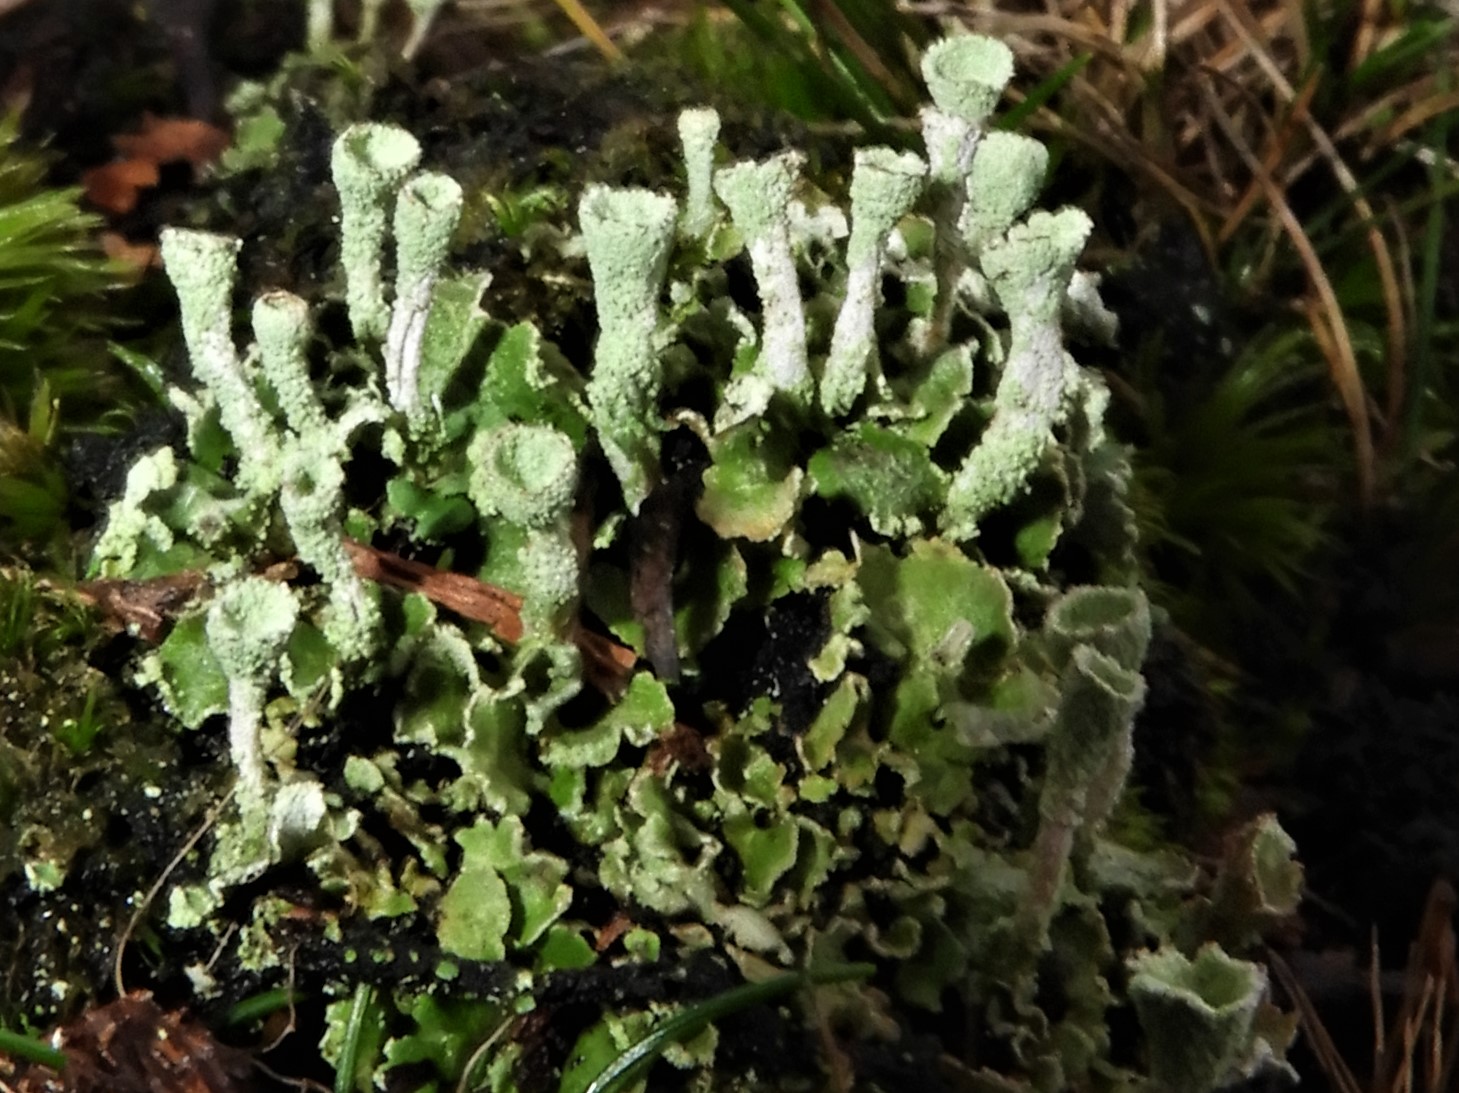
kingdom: Fungi
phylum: Ascomycota
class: Lecanoromycetes
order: Lecanorales
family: Cladoniaceae
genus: Cladonia
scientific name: Cladonia humilis
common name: lav bægerlav
